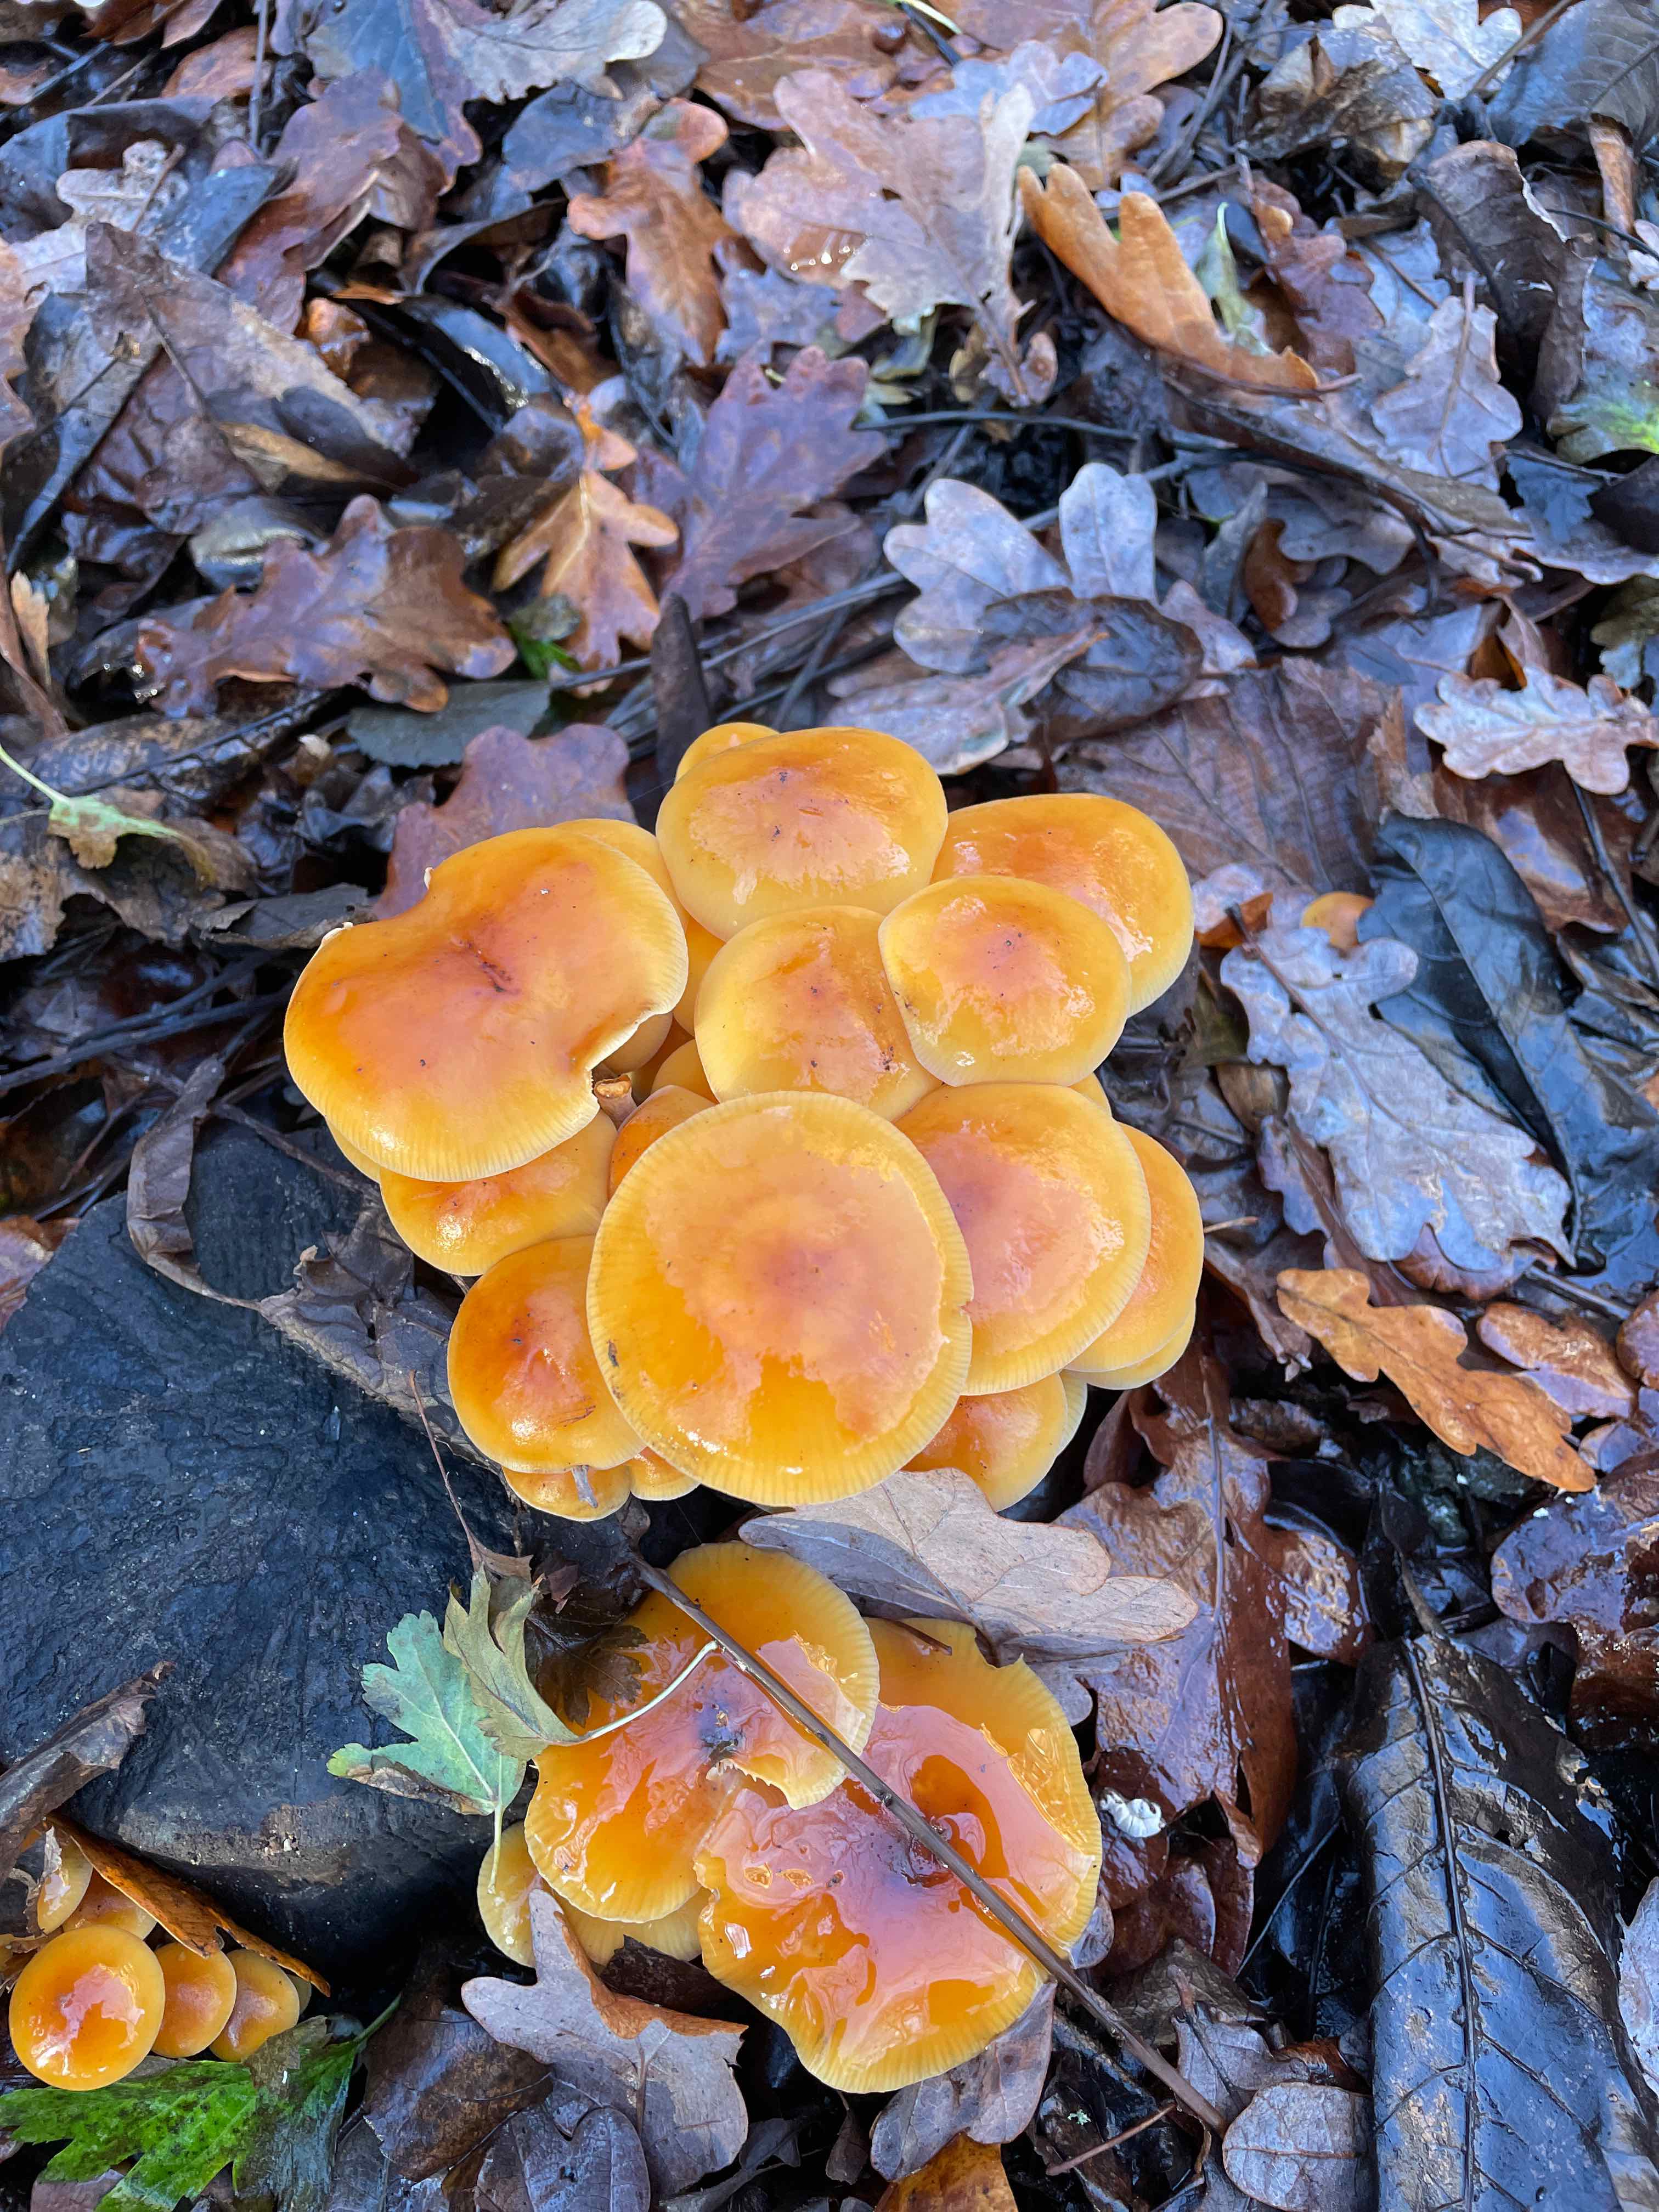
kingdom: Fungi
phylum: Basidiomycota
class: Agaricomycetes
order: Agaricales
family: Physalacriaceae
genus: Flammulina
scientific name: Flammulina
